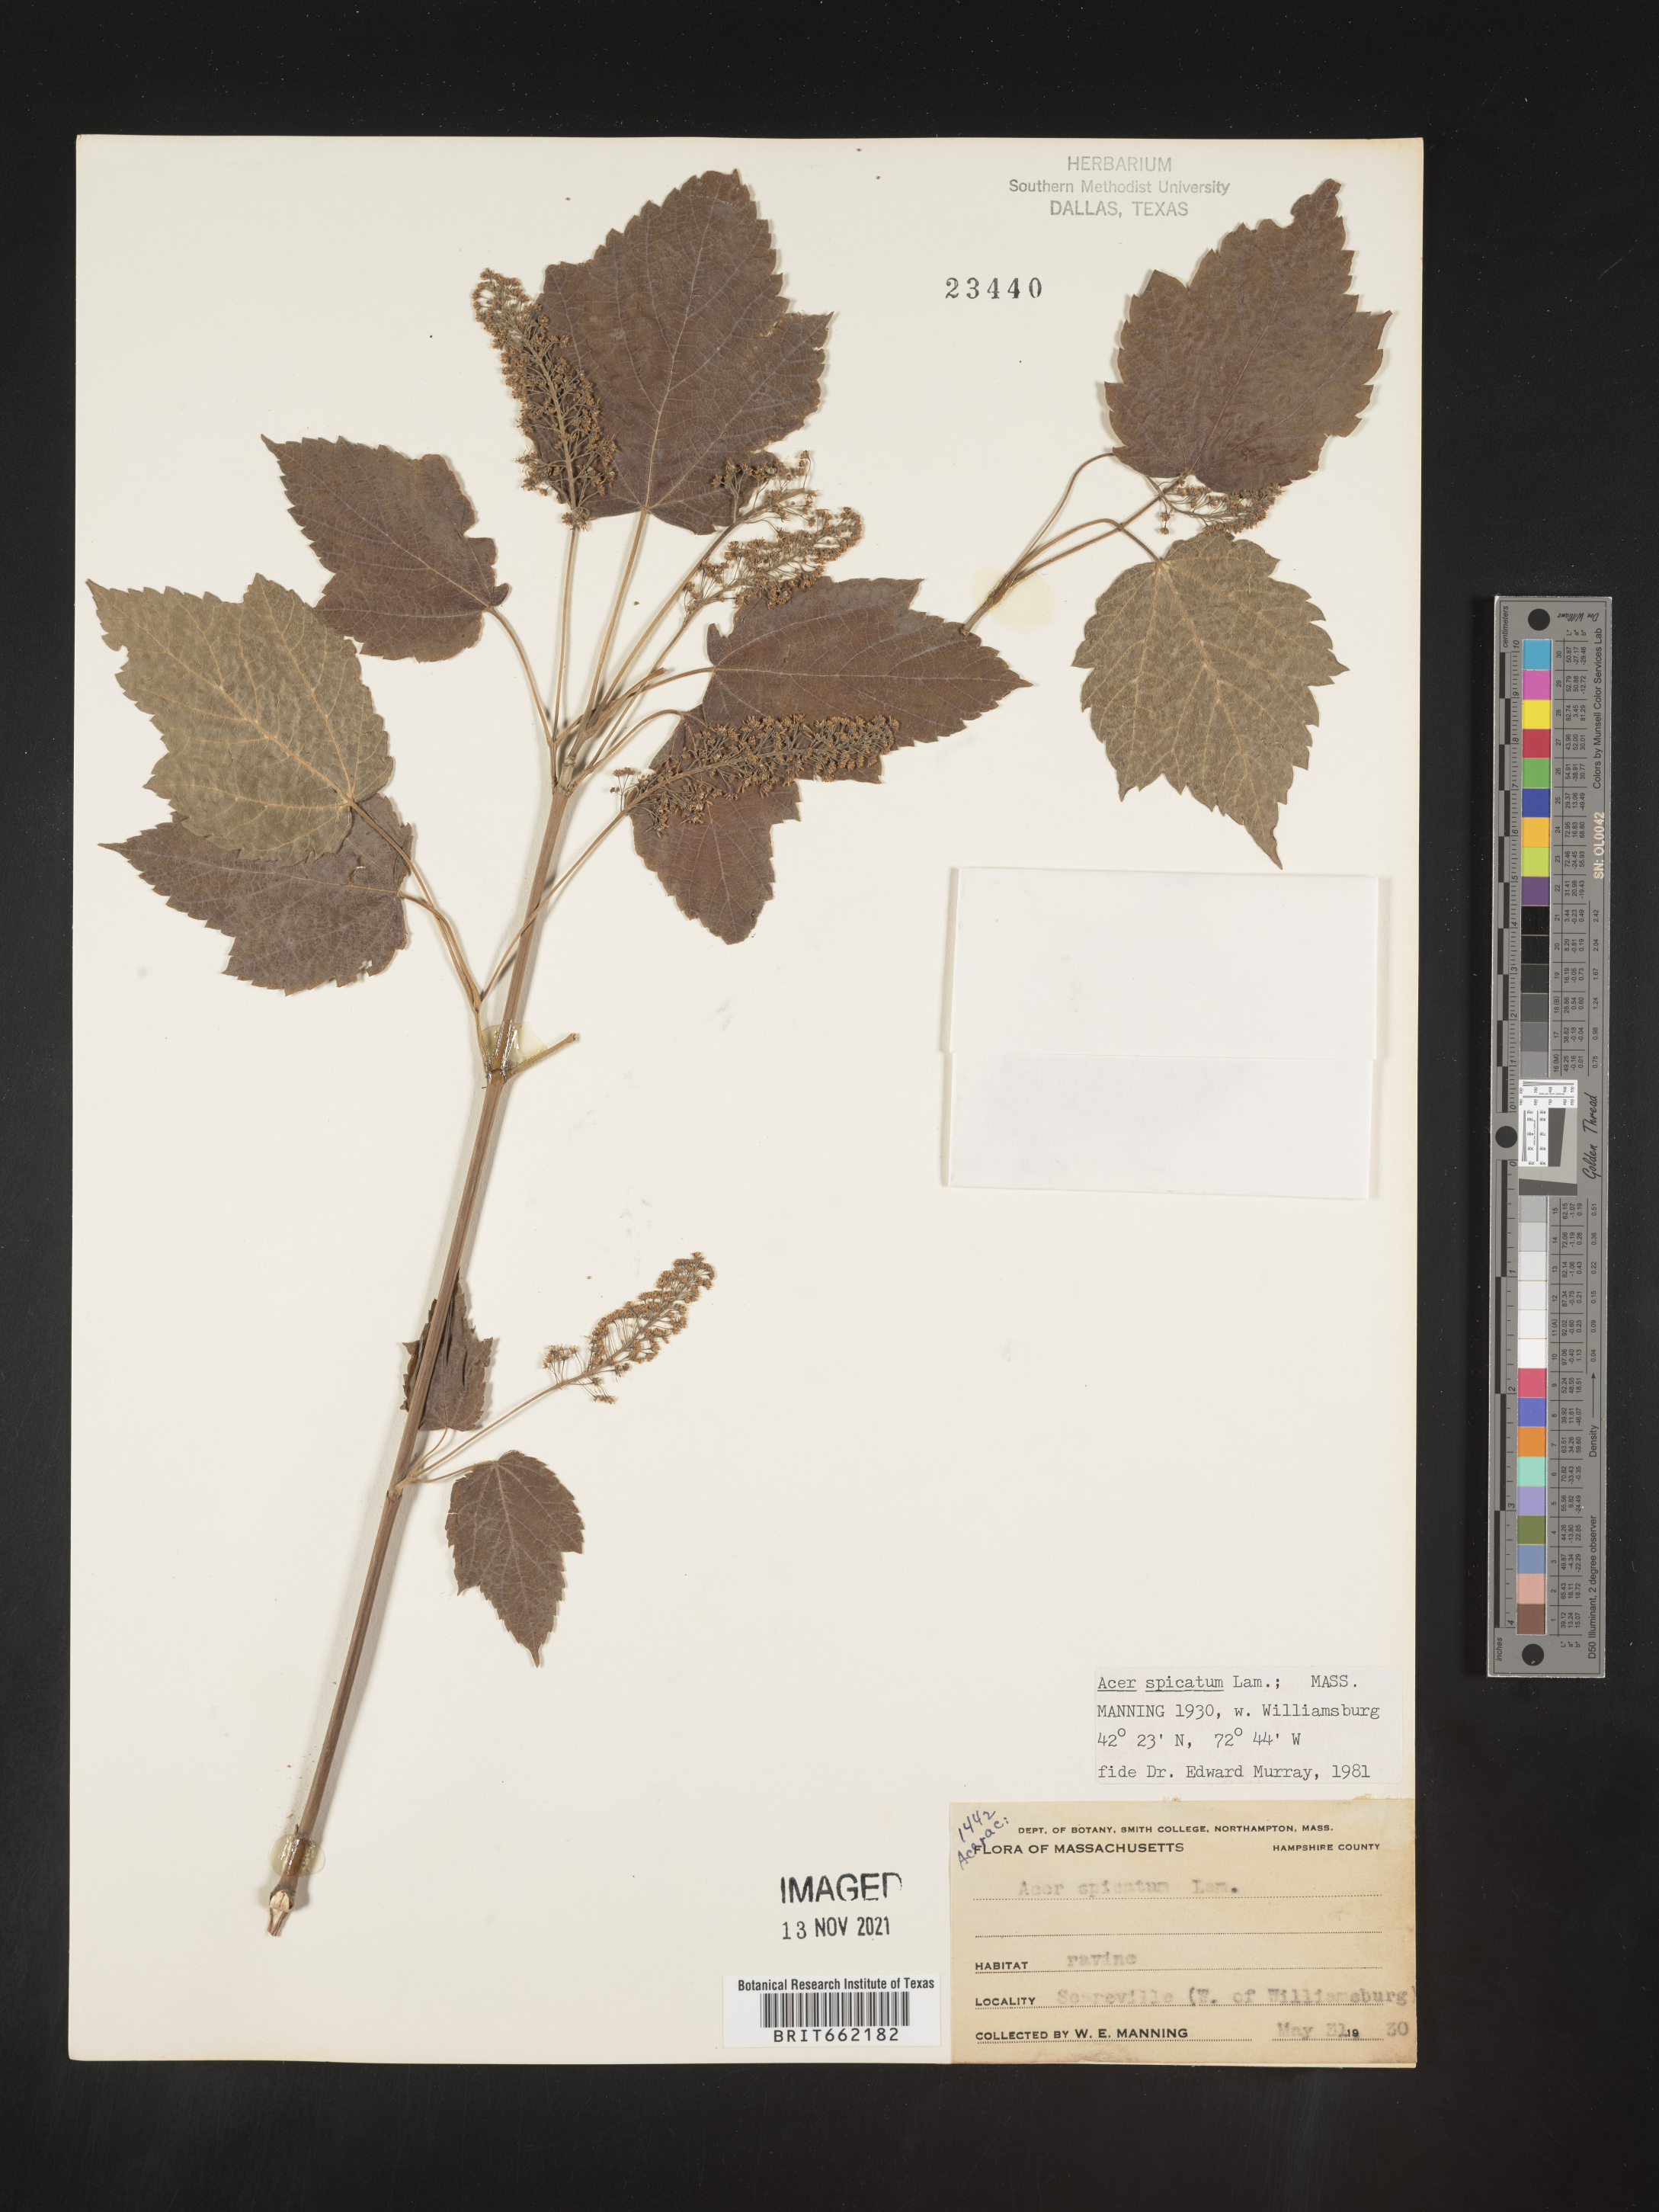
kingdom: Plantae
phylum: Tracheophyta
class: Magnoliopsida
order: Sapindales
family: Sapindaceae
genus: Acer
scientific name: Acer spicatum
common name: Mountain maple
